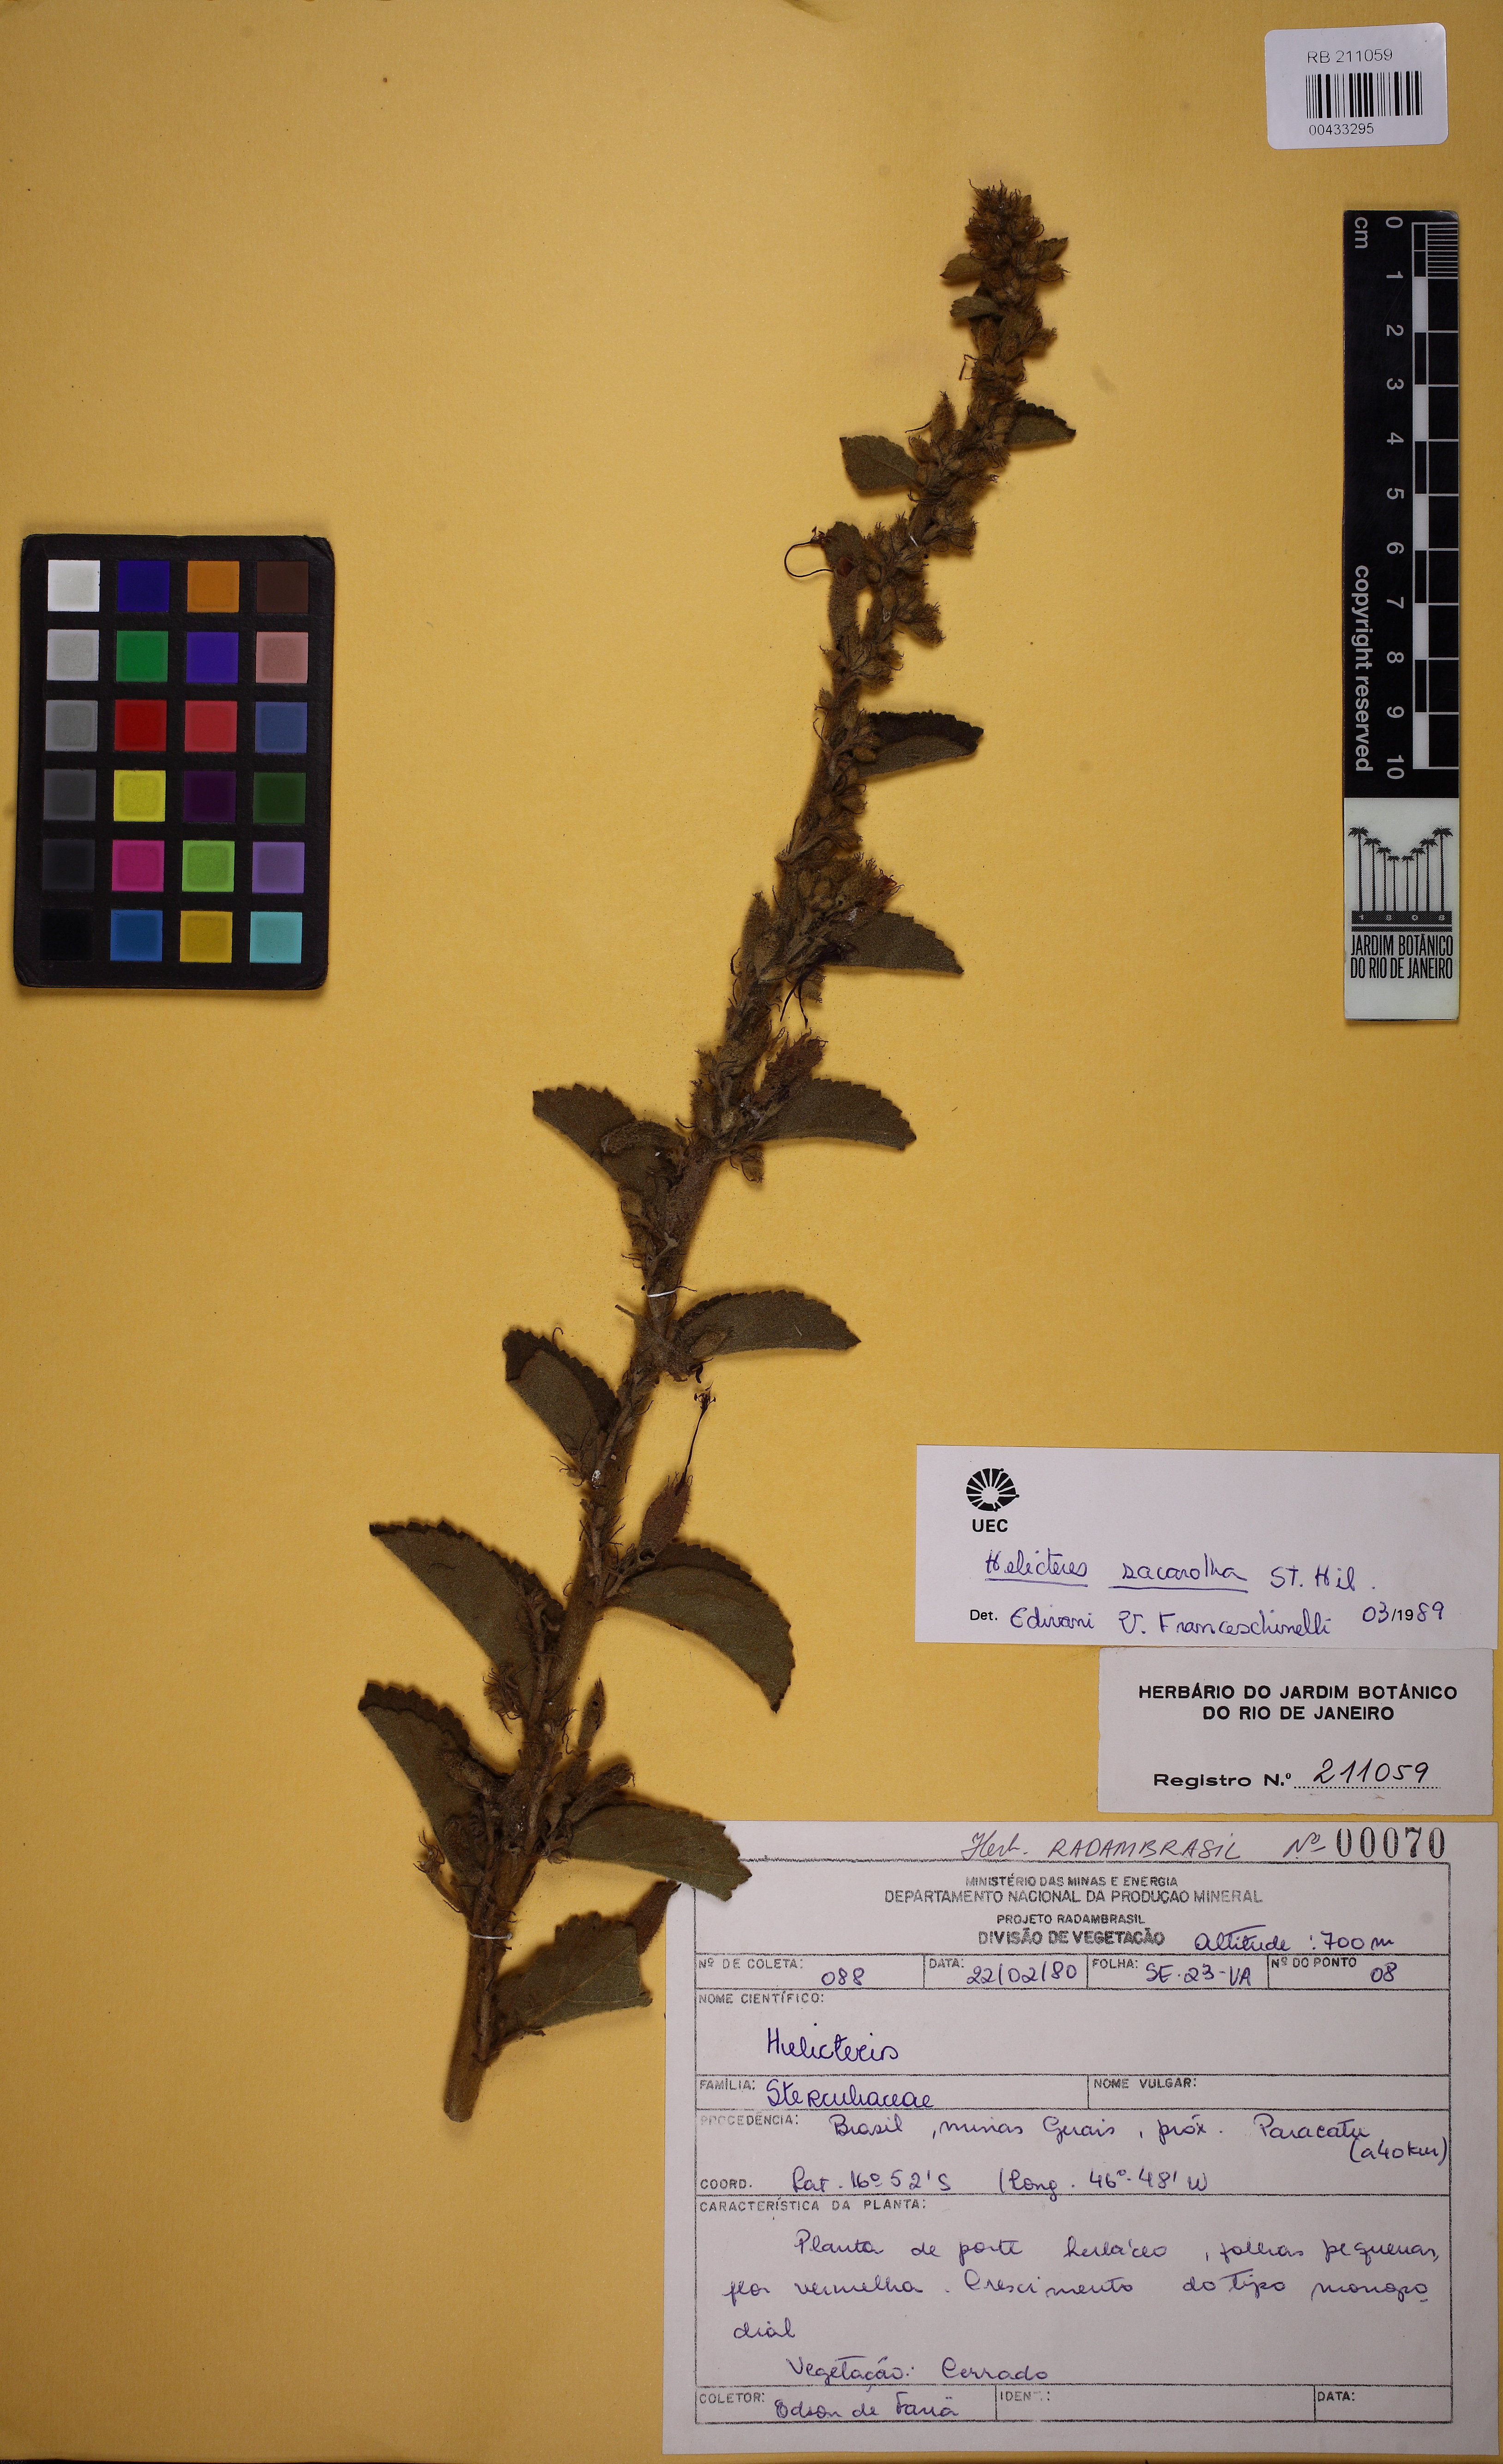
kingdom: Plantae
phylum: Tracheophyta
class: Magnoliopsida
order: Malvales
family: Malvaceae
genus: Helicteres
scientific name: Helicteres sacarolha
